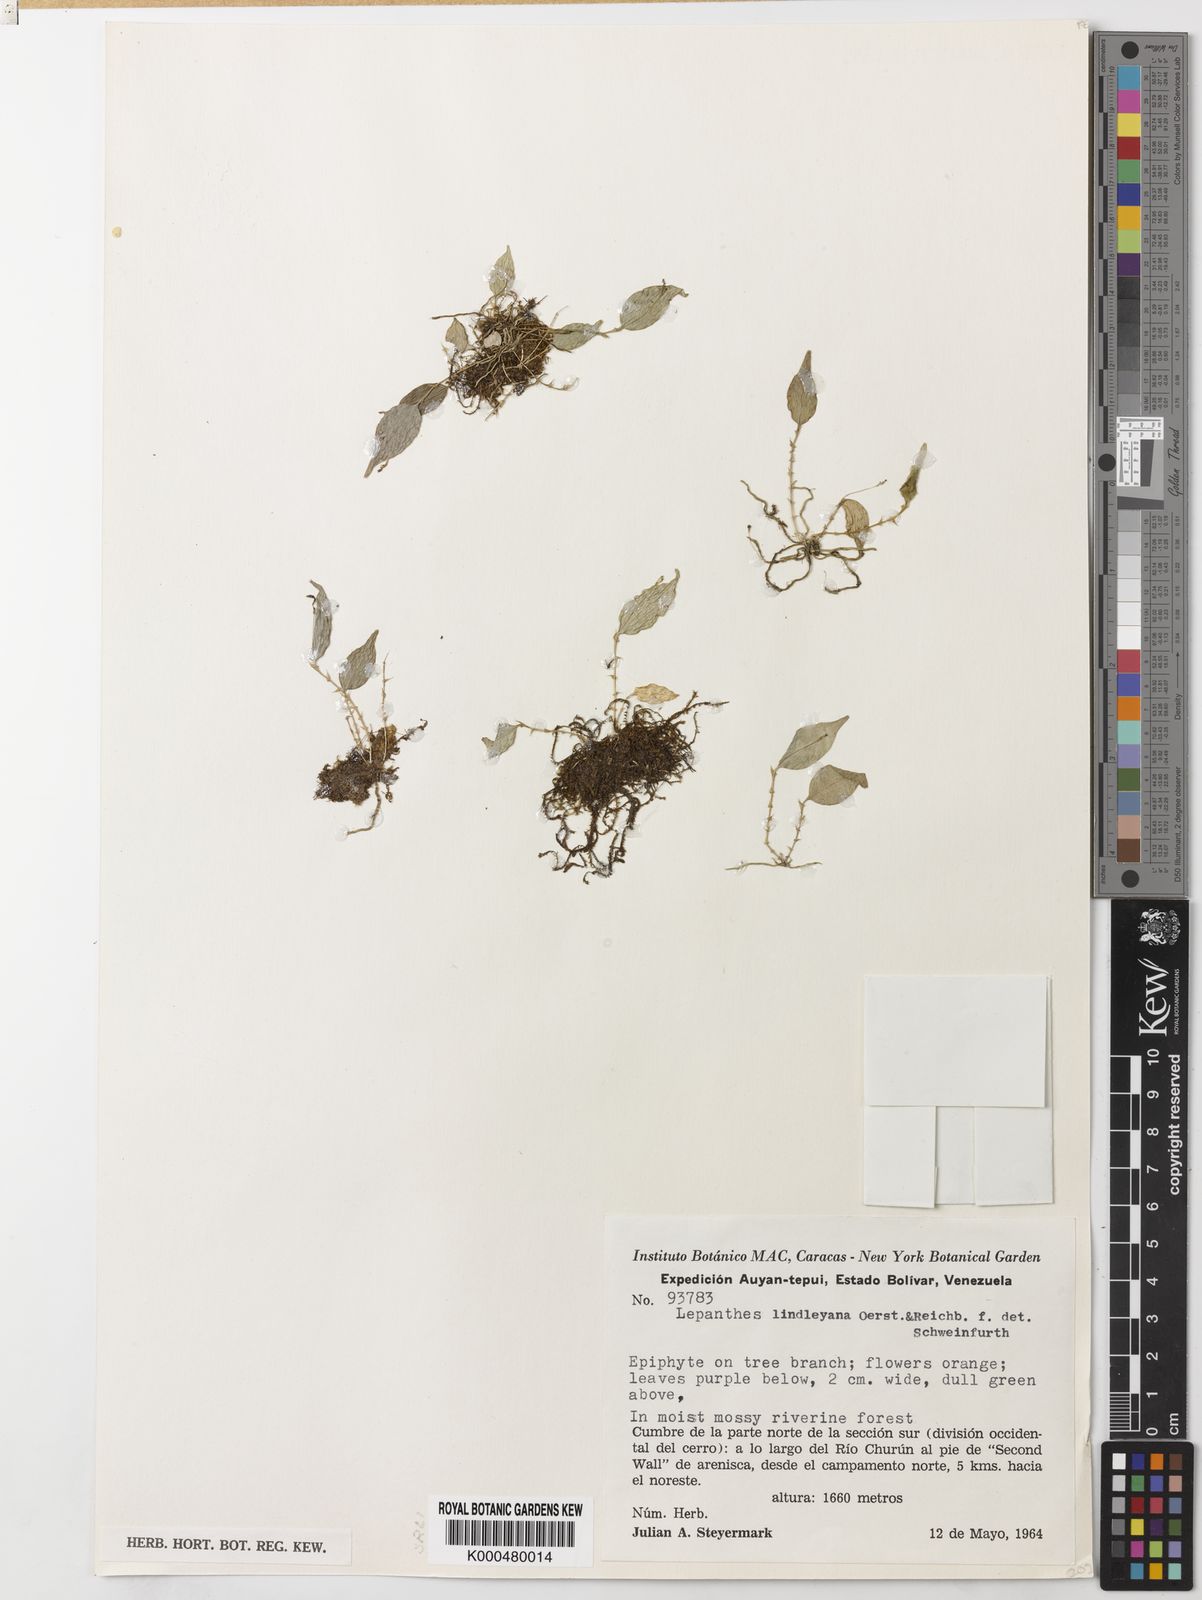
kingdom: Plantae
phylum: Tracheophyta
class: Liliopsida
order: Asparagales
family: Orchidaceae
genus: Lepanthes
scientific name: Lepanthes lindleyana
